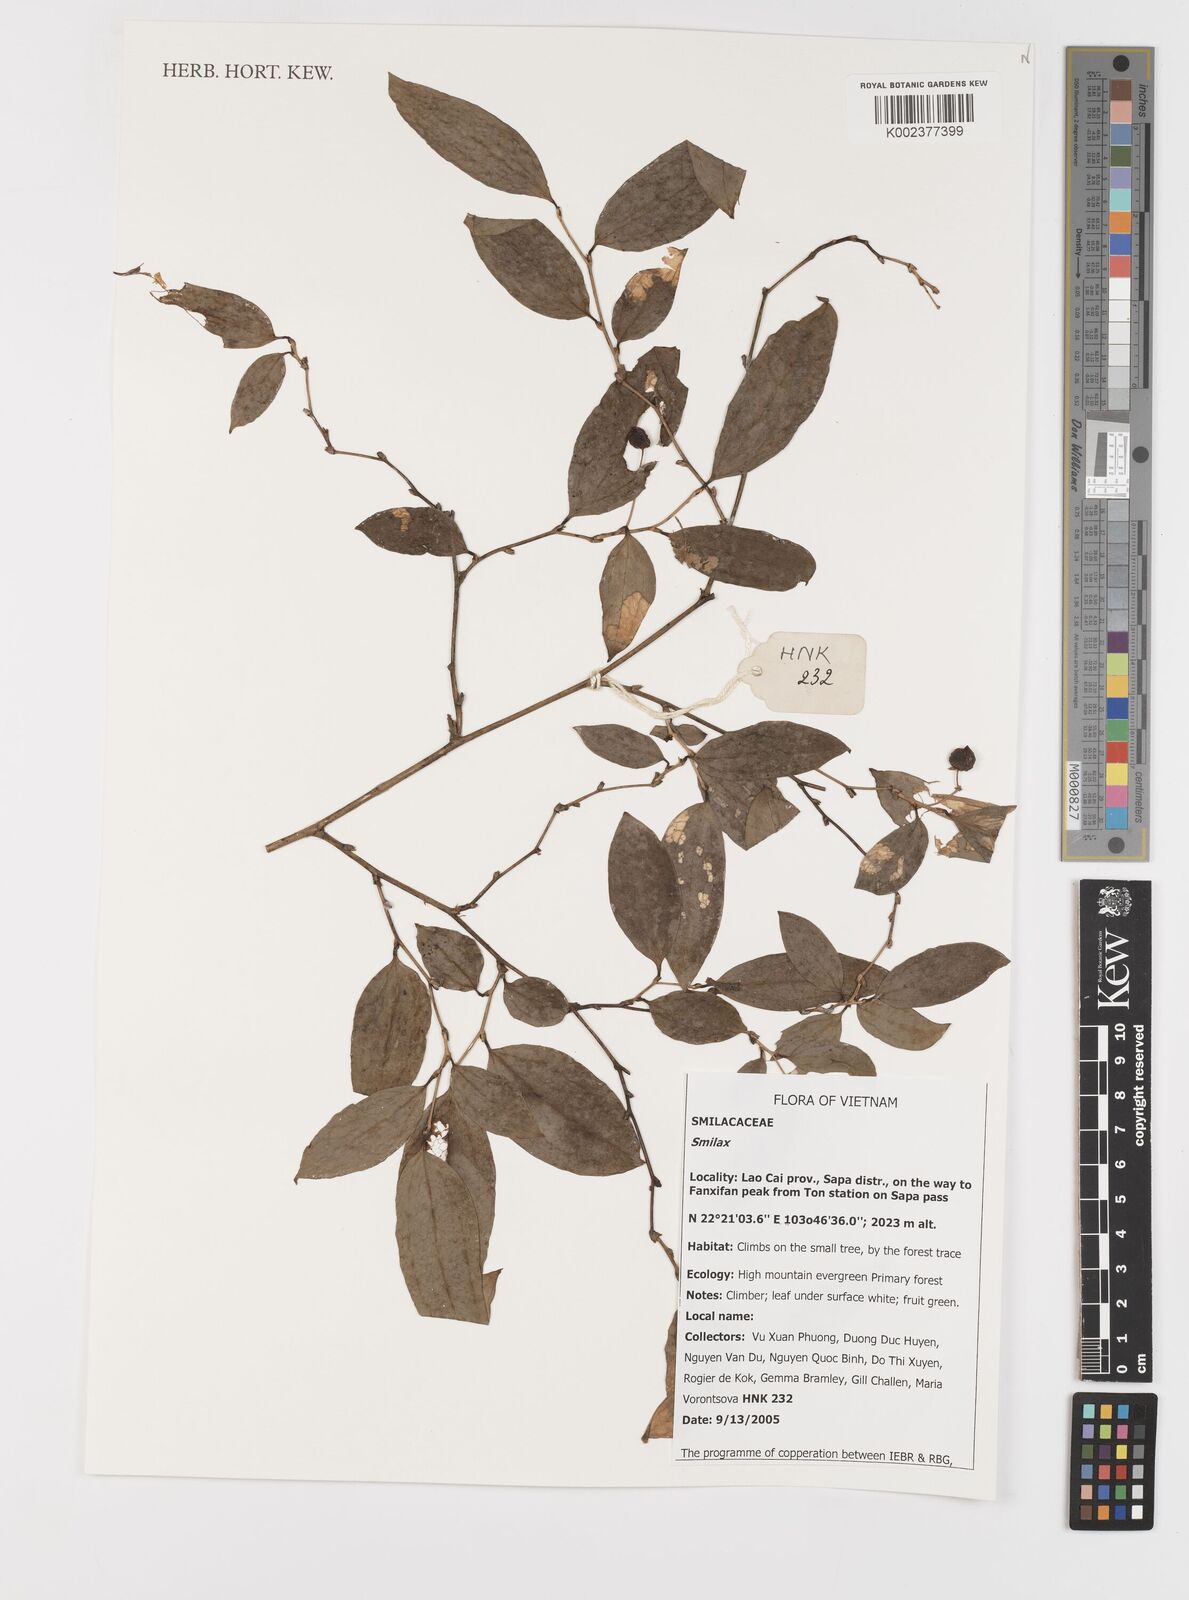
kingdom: Plantae
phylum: Tracheophyta
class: Liliopsida
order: Liliales
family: Smilacaceae
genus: Smilax
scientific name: Smilax
